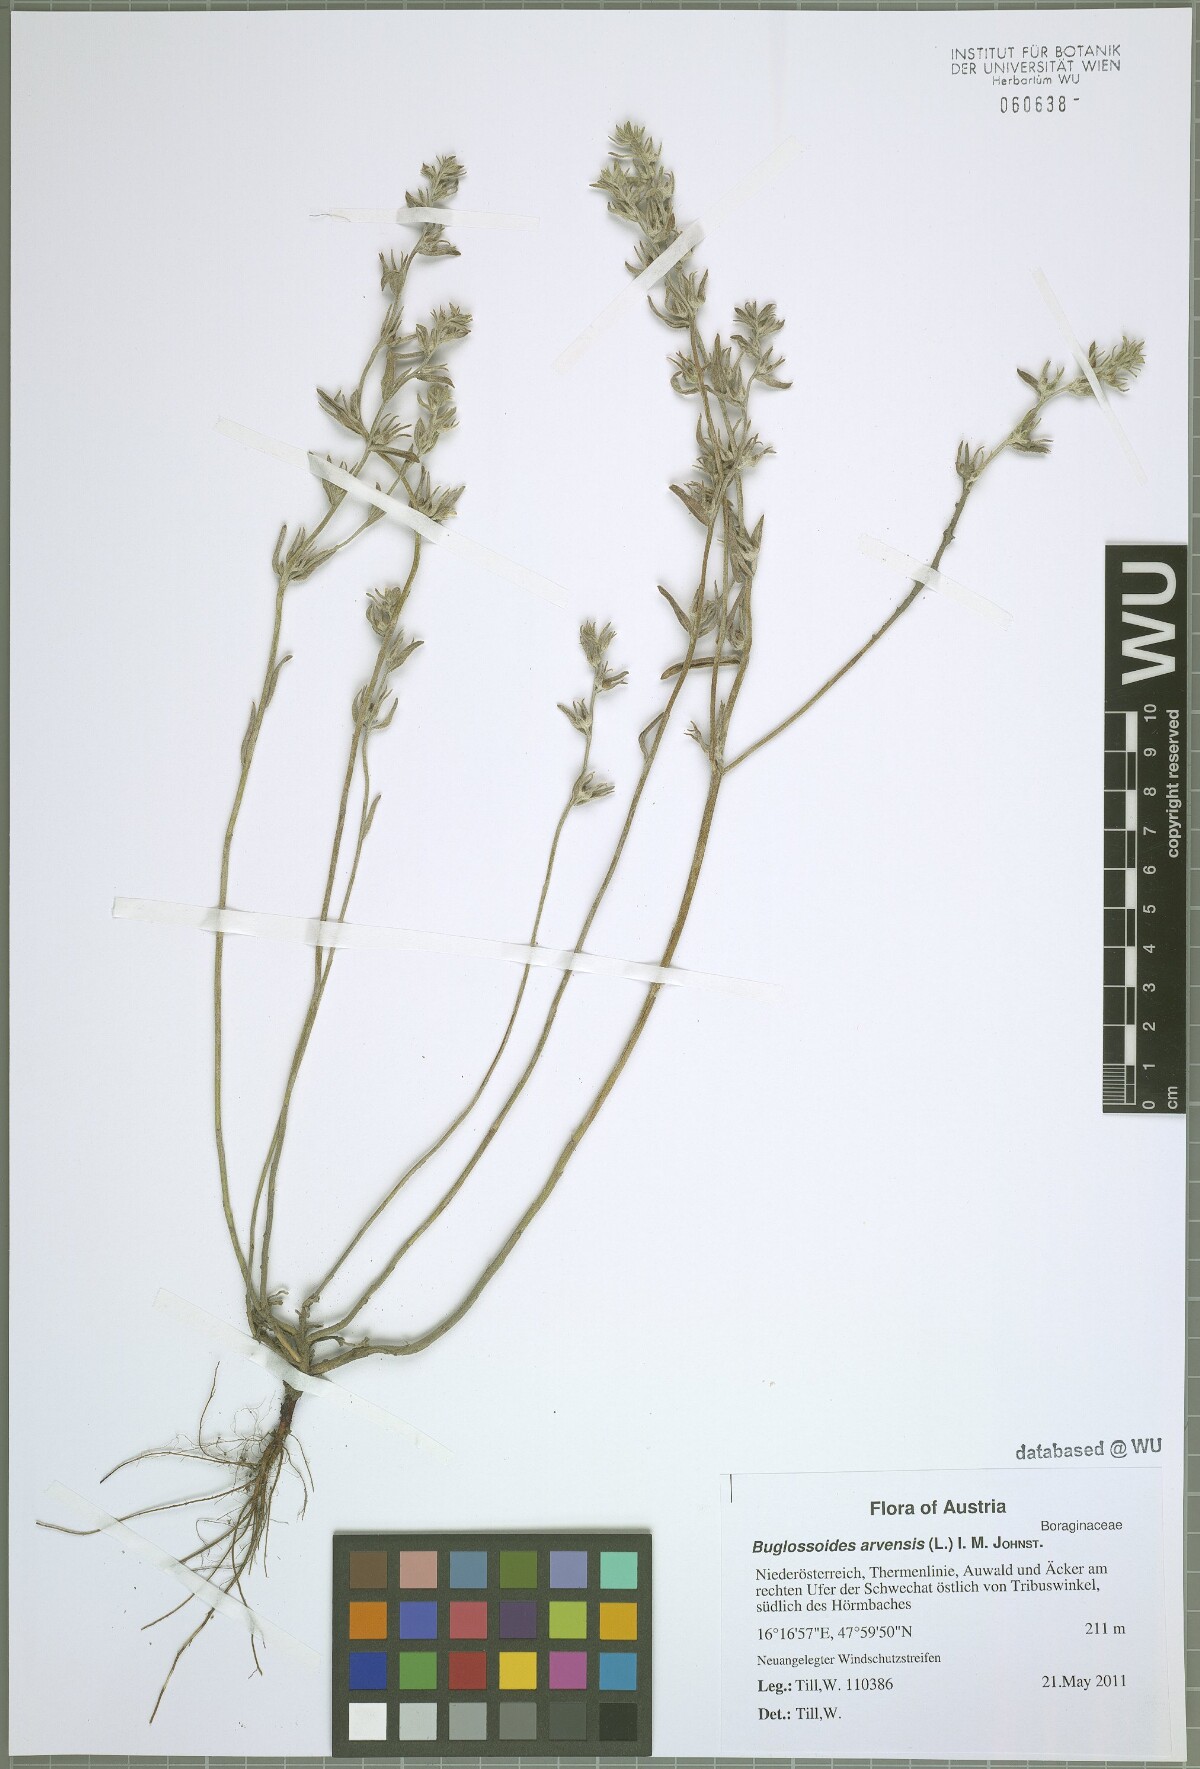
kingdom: Plantae
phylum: Tracheophyta
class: Magnoliopsida
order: Boraginales
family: Boraginaceae
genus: Buglossoides
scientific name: Buglossoides arvensis
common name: Corn gromwell
